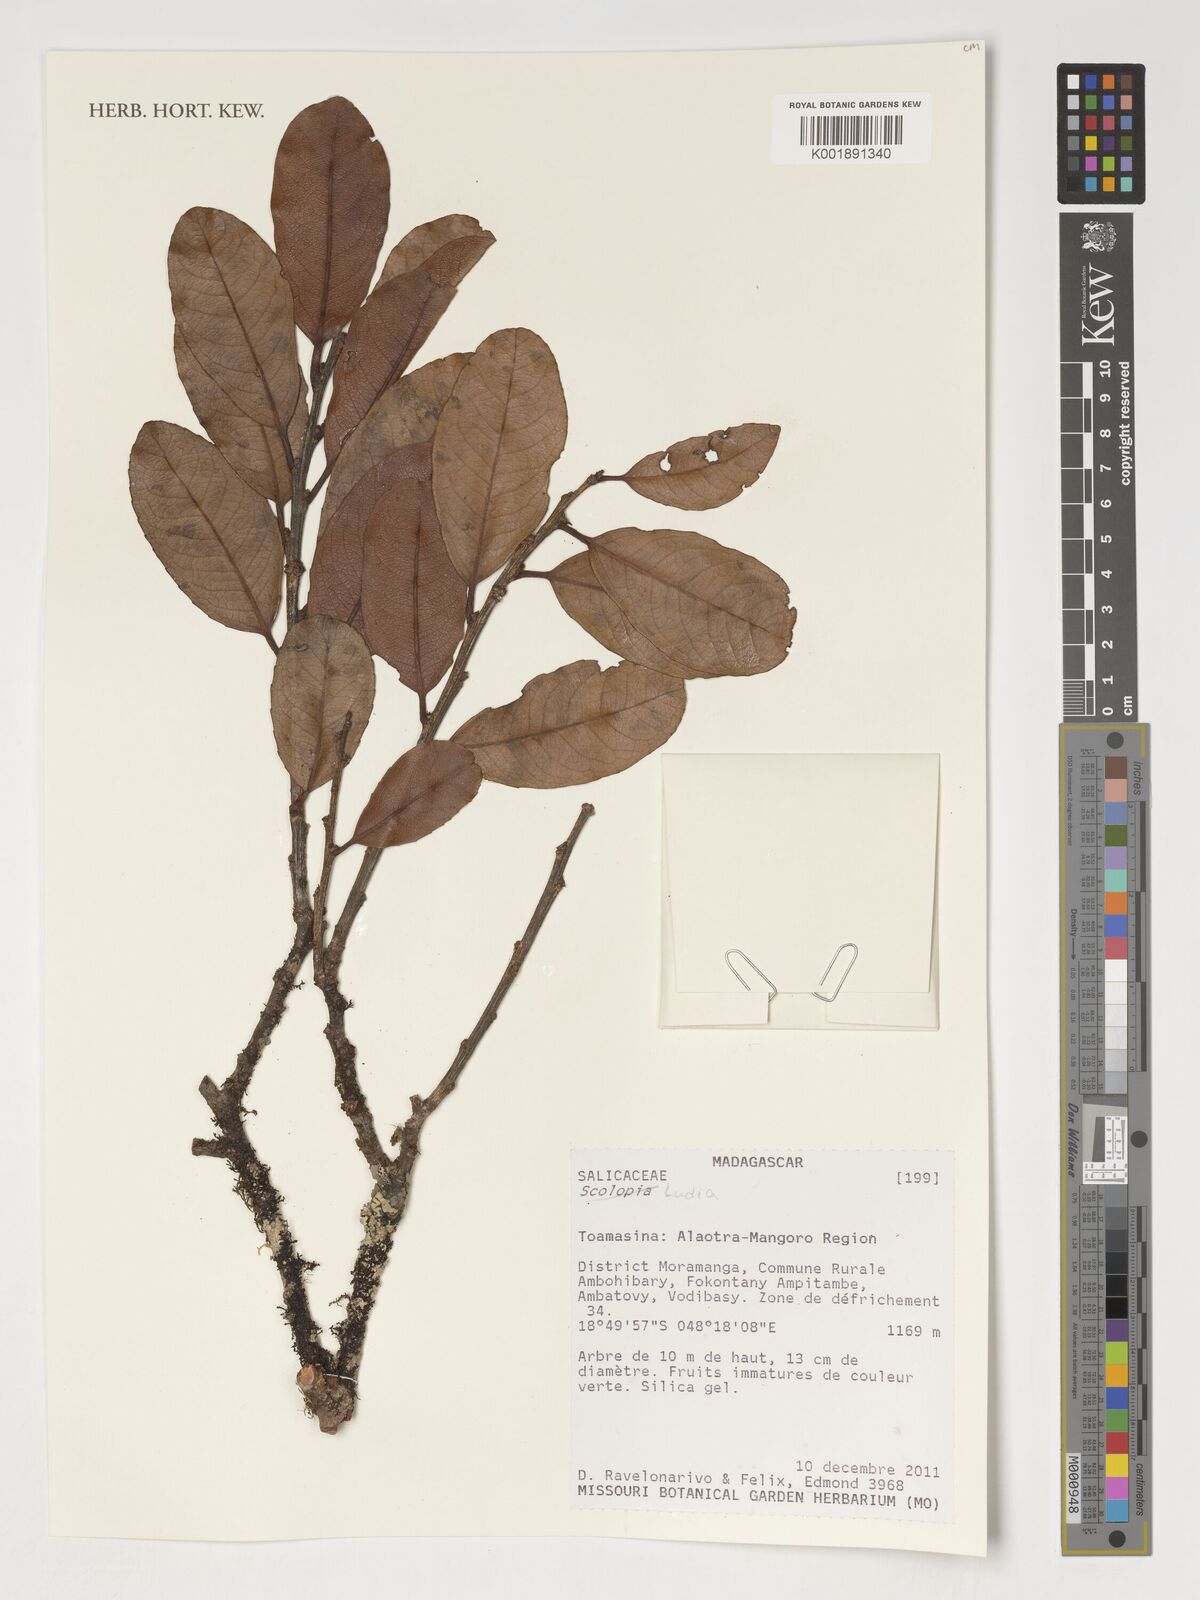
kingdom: Plantae
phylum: Tracheophyta
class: Magnoliopsida
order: Malpighiales
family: Salicaceae
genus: Ludia
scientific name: Ludia
